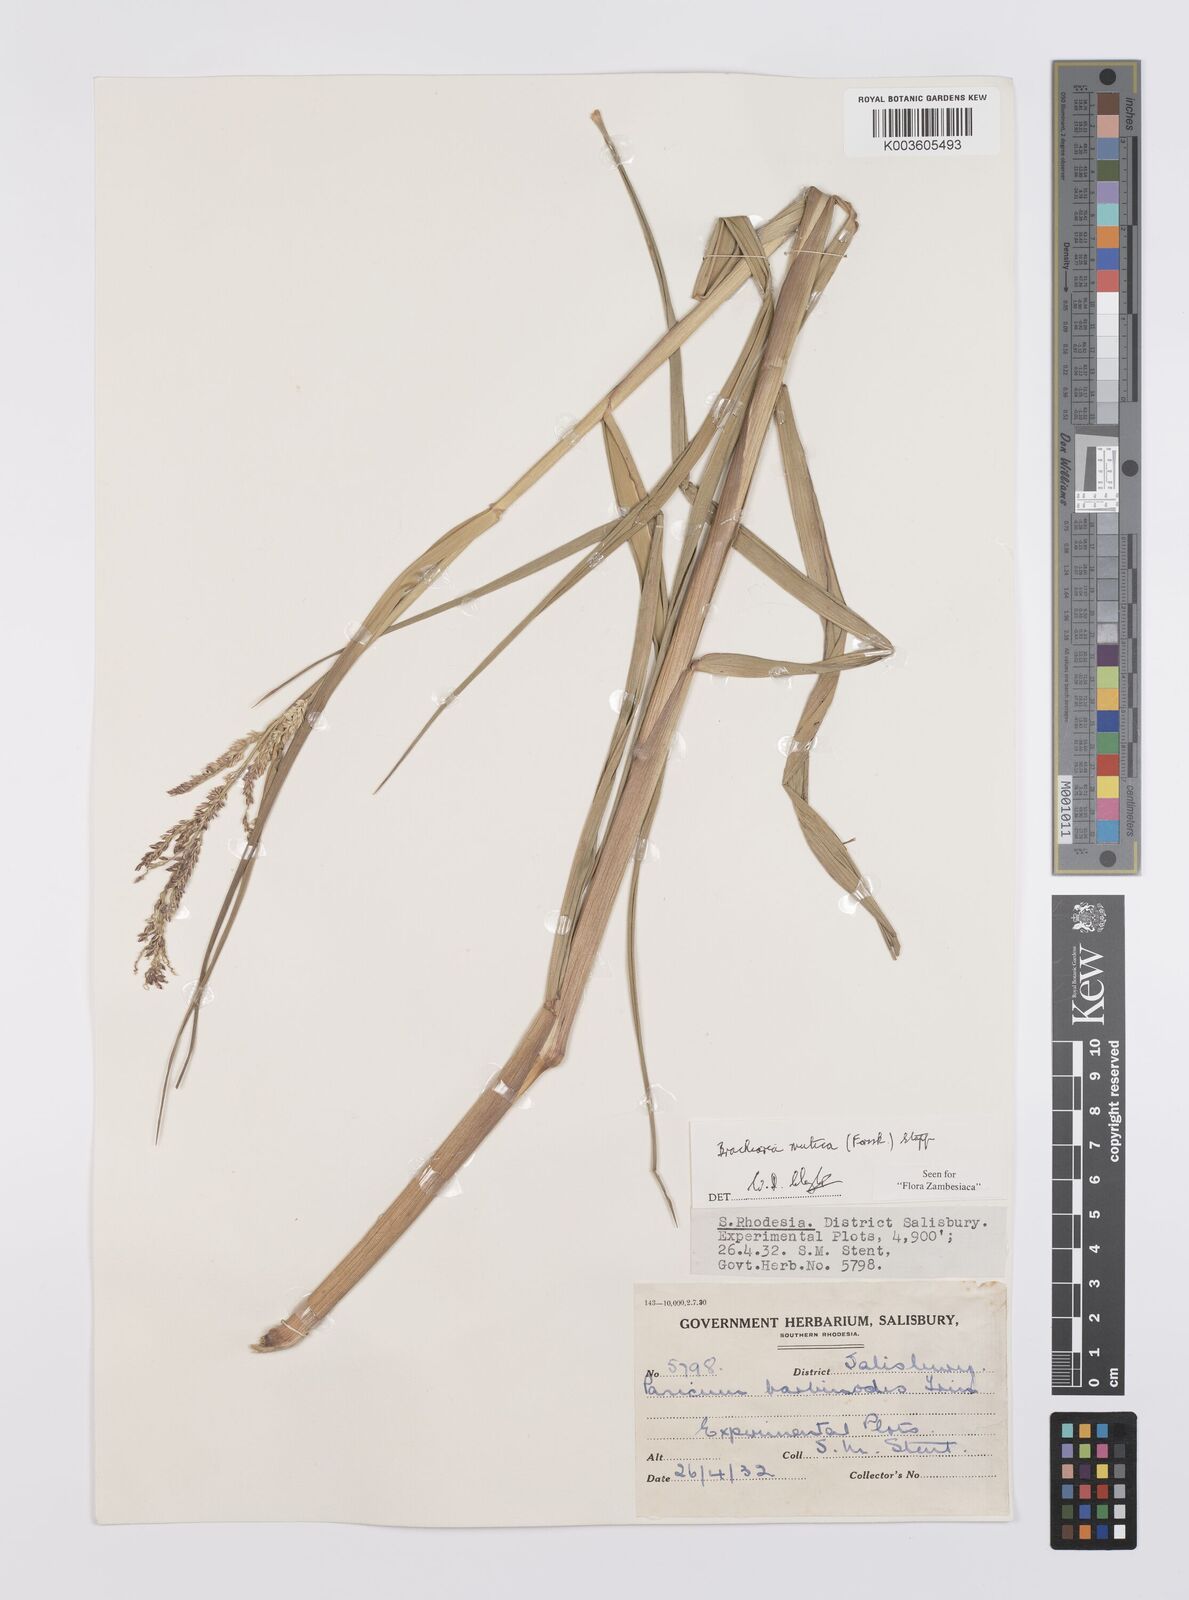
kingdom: Plantae
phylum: Tracheophyta
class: Liliopsida
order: Poales
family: Poaceae
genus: Urochloa
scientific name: Urochloa mutica
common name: Para grass
